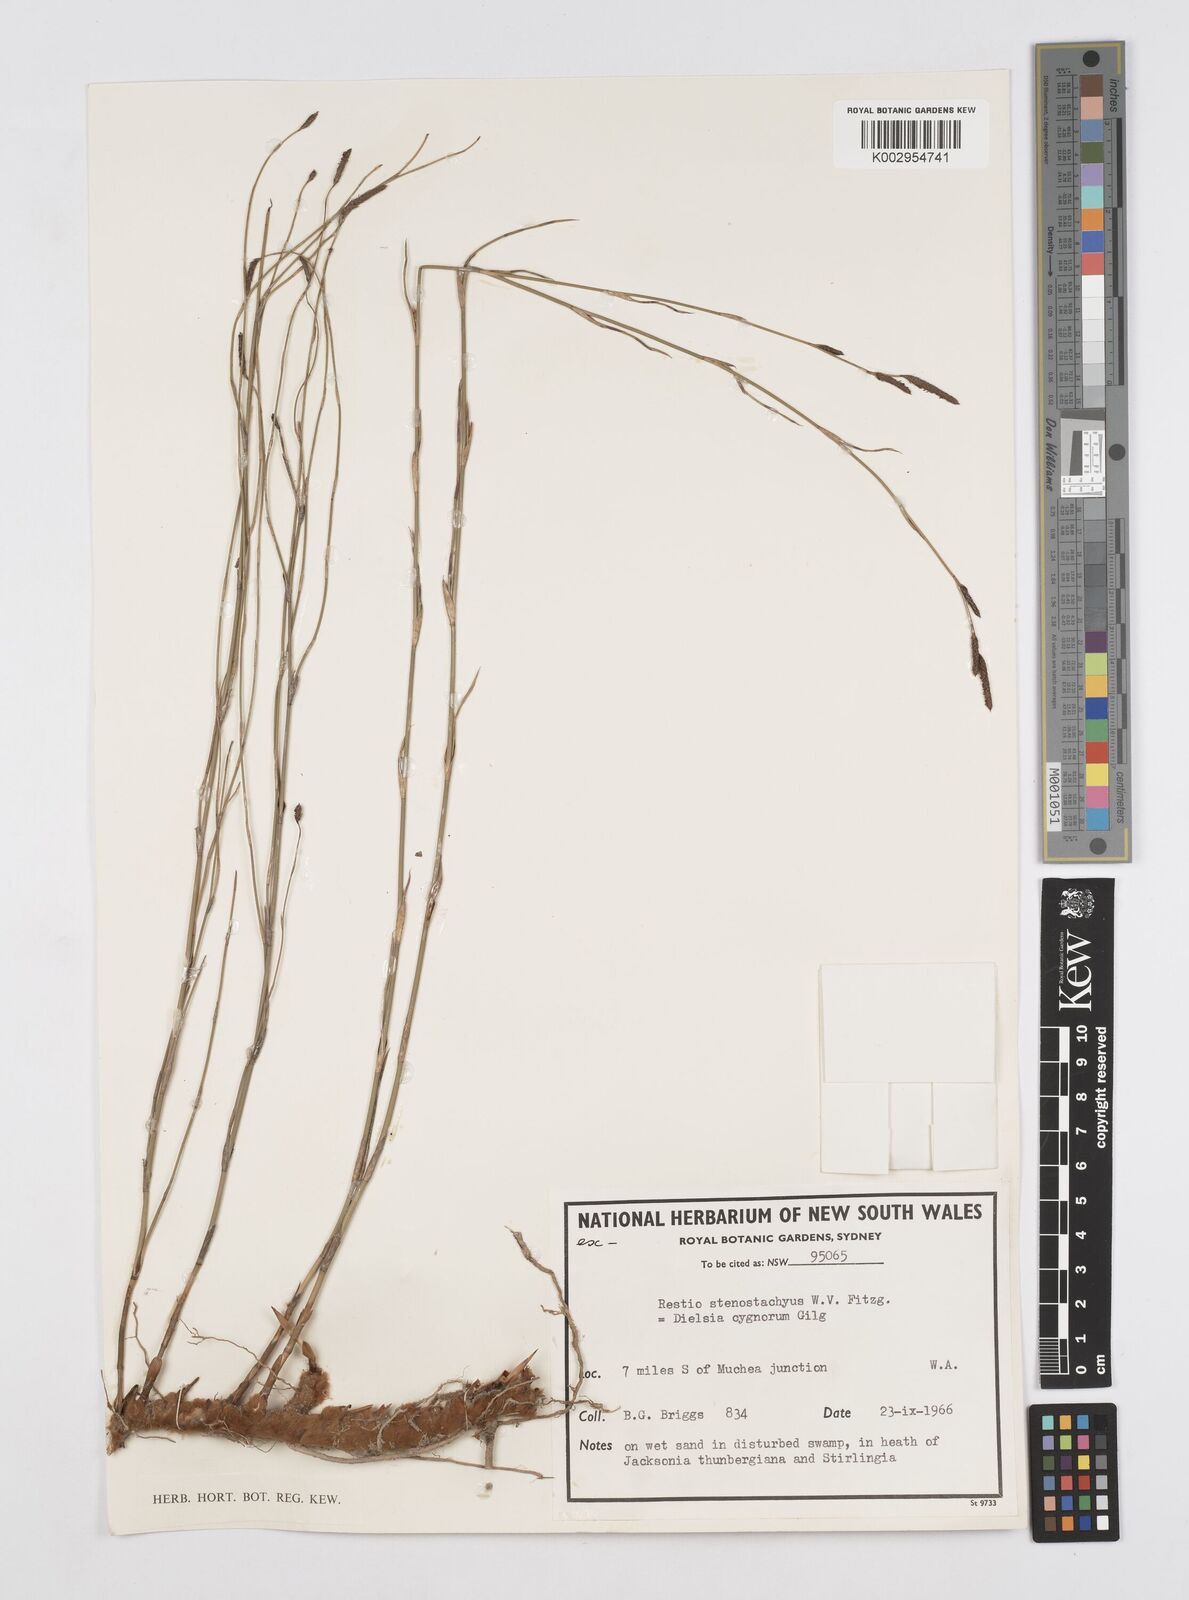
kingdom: Plantae
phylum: Tracheophyta
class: Liliopsida
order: Poales
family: Restionaceae
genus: Dielsia
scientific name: Dielsia stenostachya
